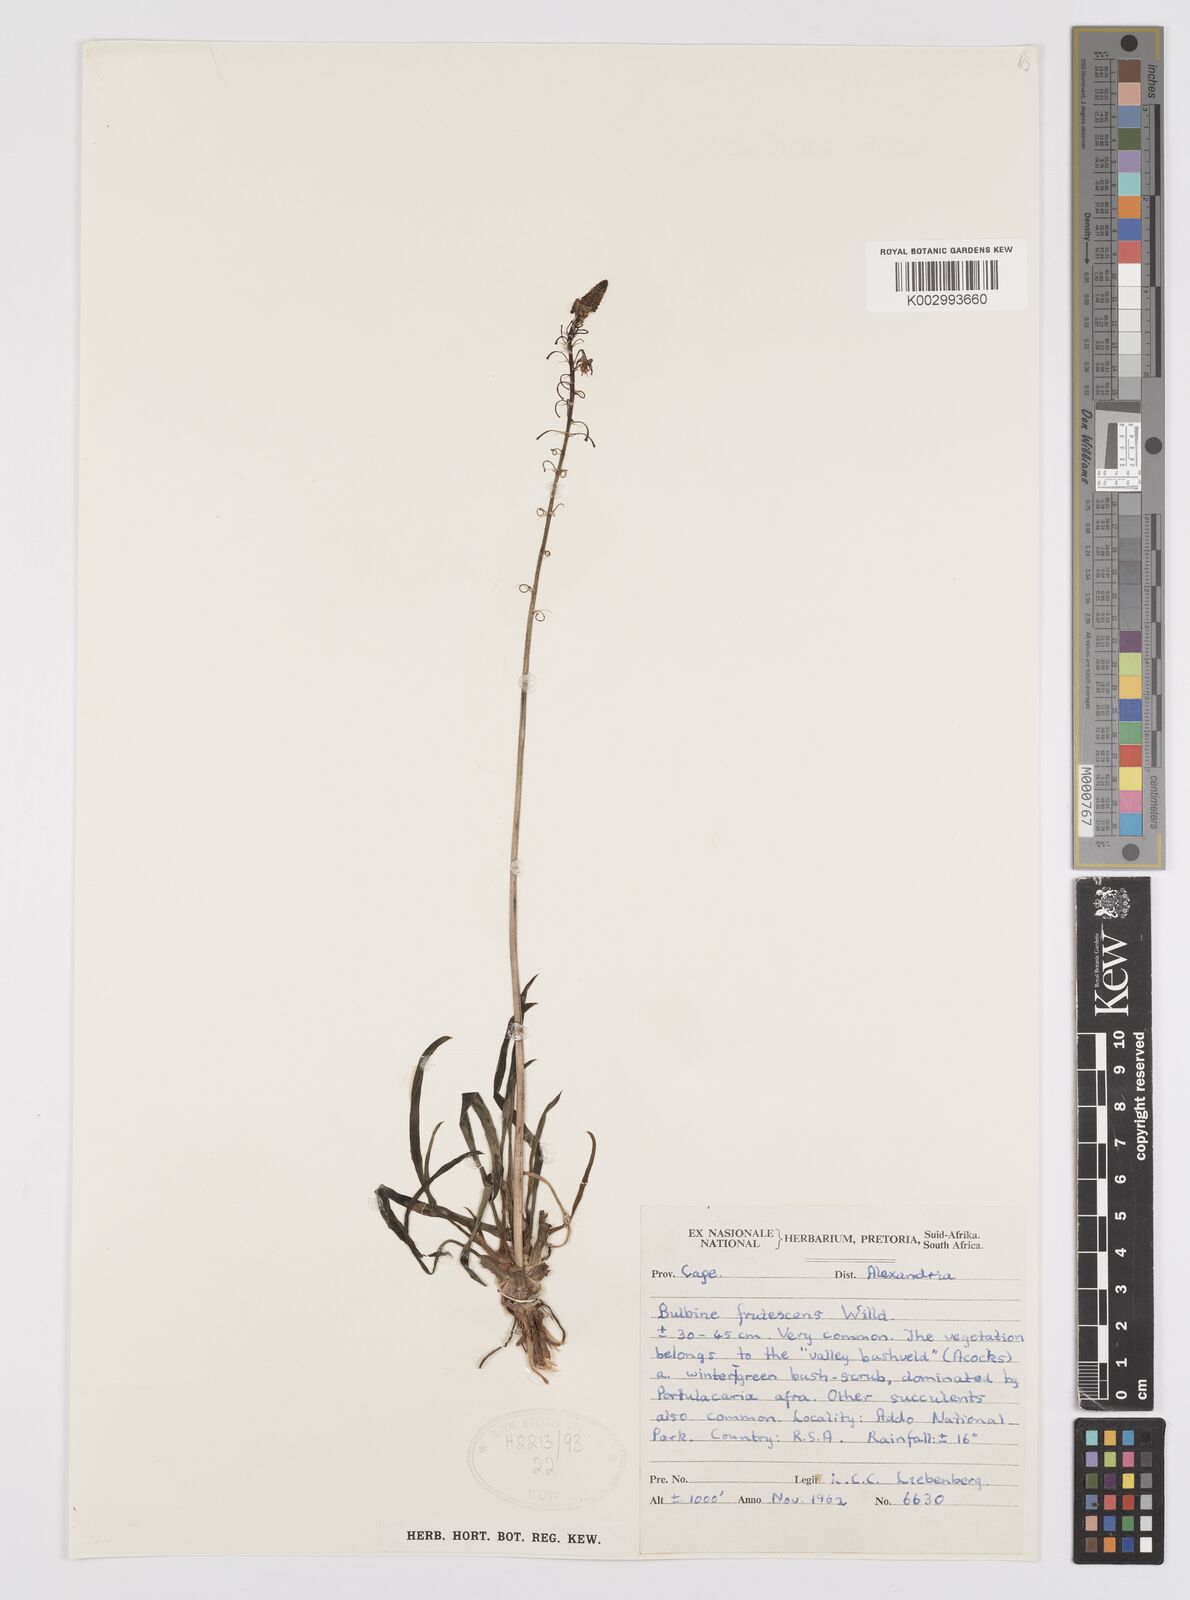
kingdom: Plantae
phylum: Tracheophyta
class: Liliopsida
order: Asparagales
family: Asphodelaceae
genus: Bulbine
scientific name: Bulbine frutescens
